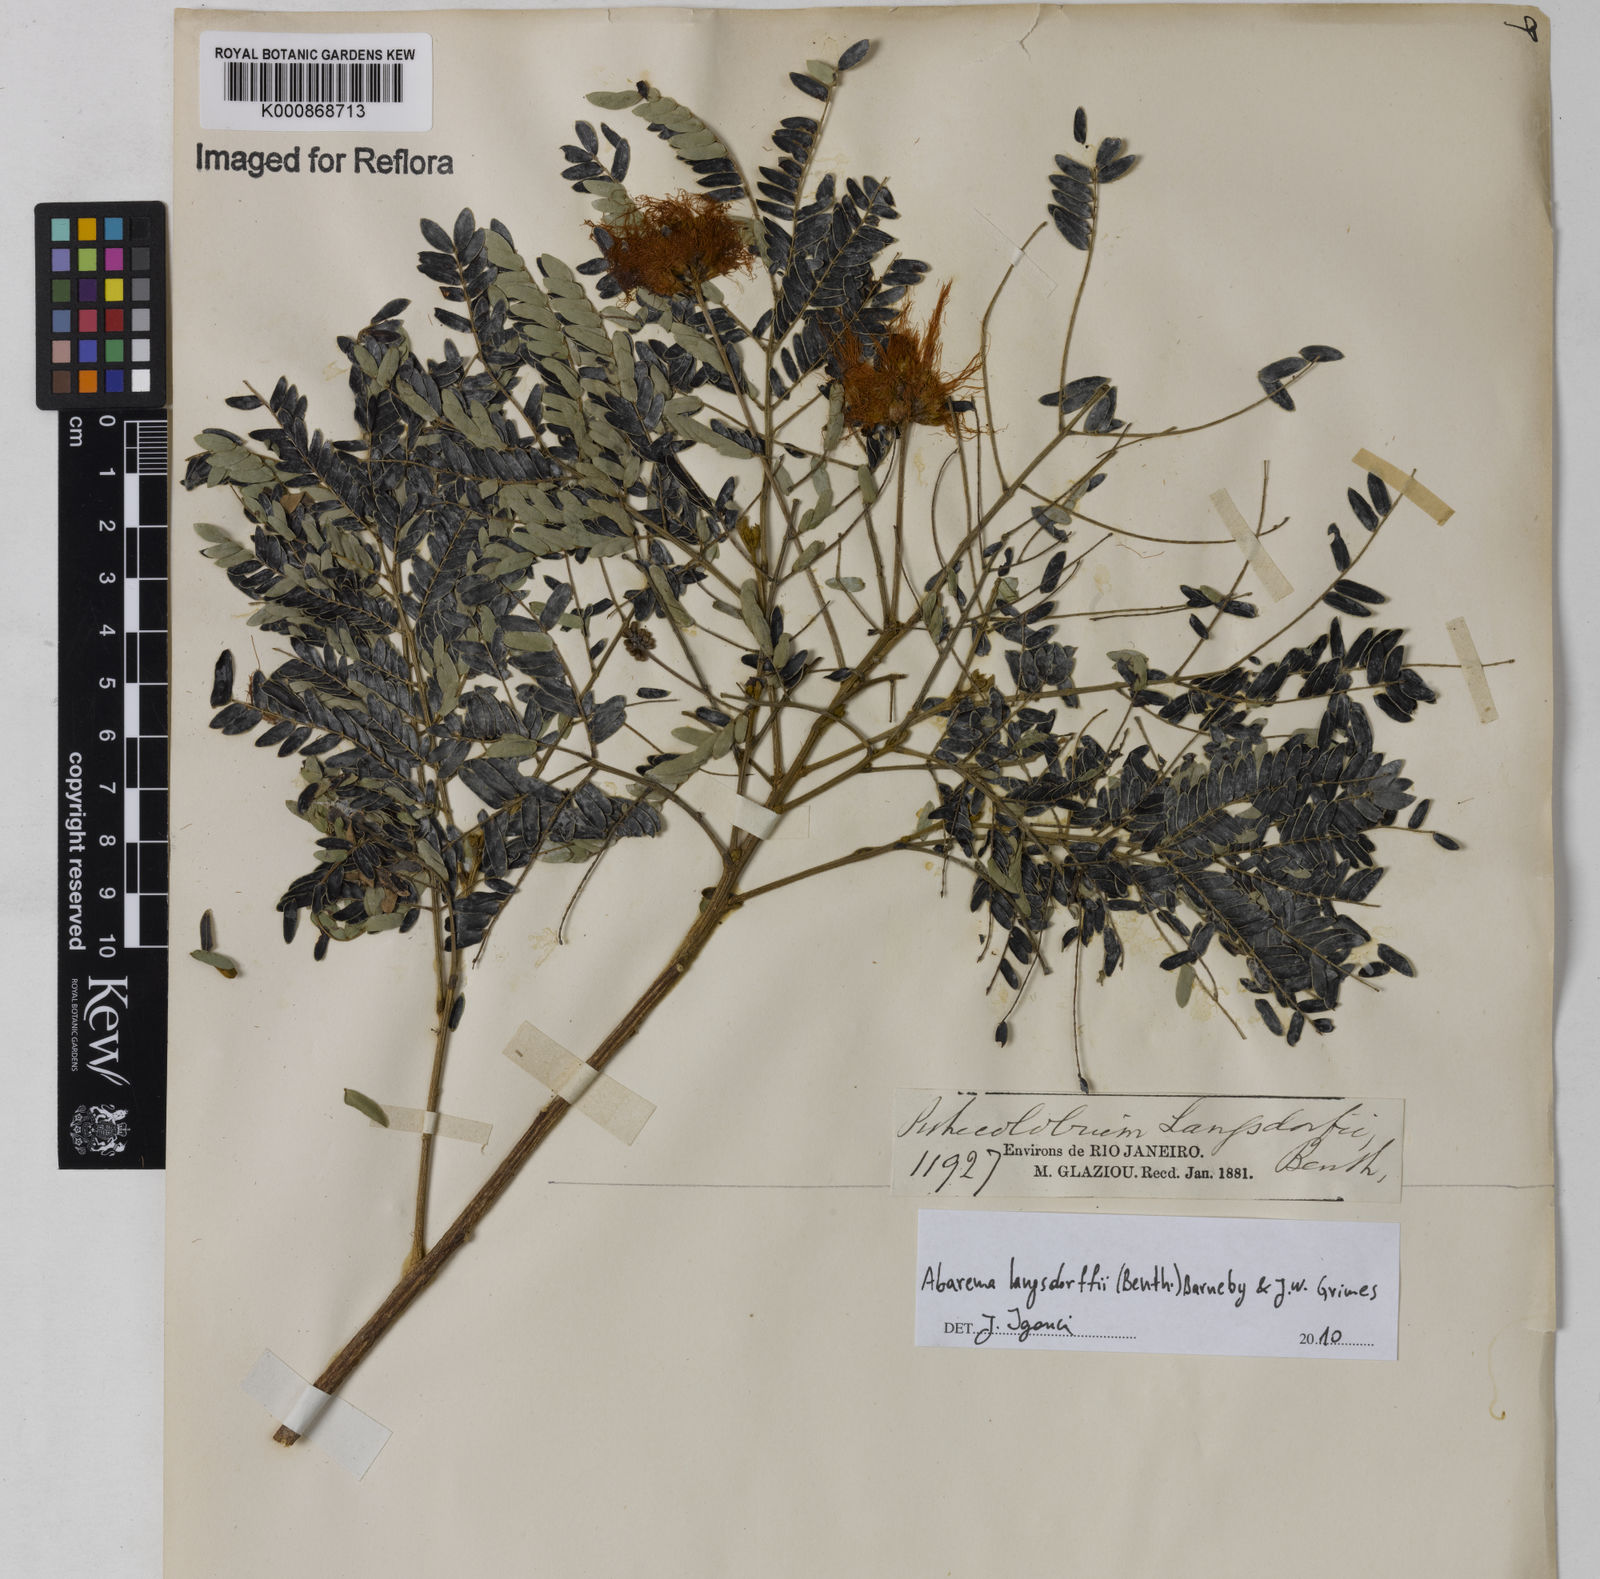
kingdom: Plantae
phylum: Tracheophyta
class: Magnoliopsida
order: Fabales
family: Fabaceae
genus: Jupunba
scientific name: Jupunba langsdorffii
